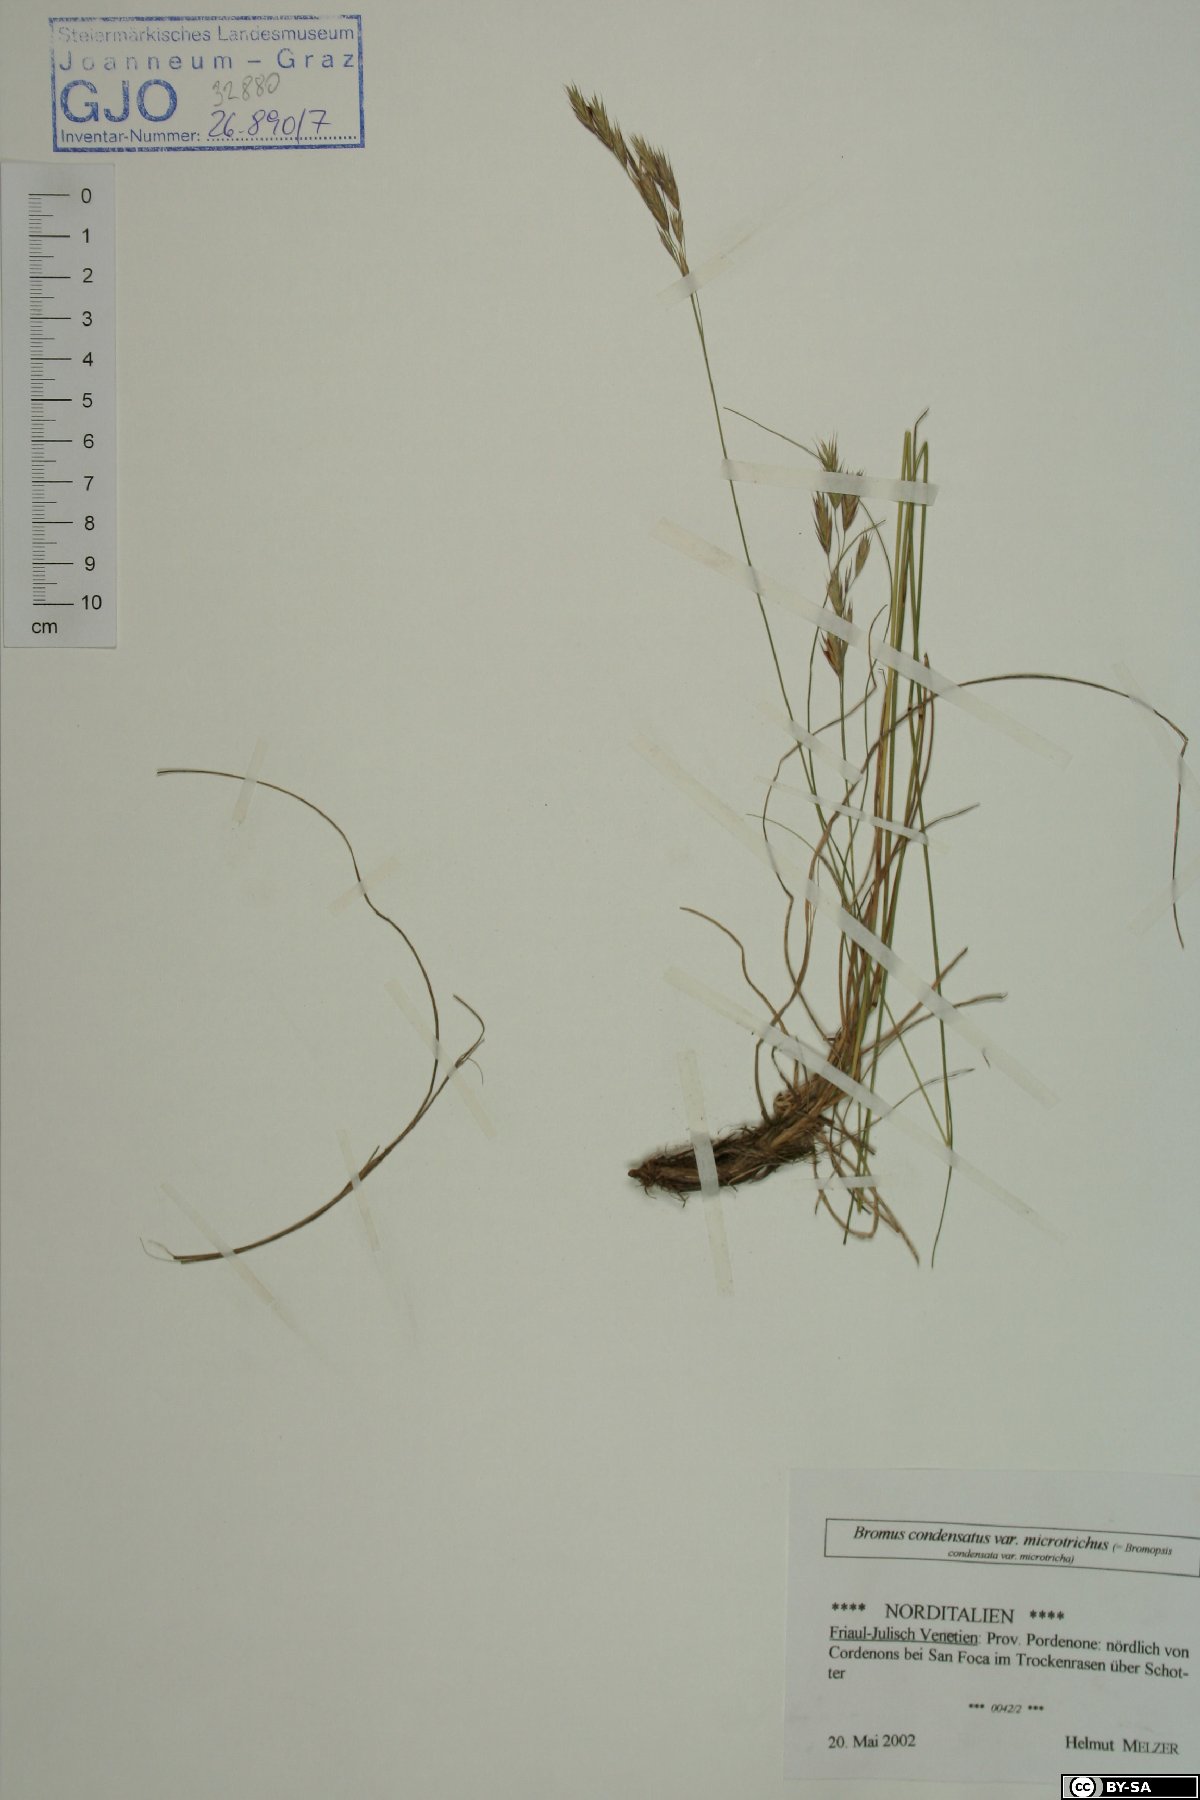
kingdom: Plantae
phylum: Tracheophyta
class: Liliopsida
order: Poales
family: Poaceae
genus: Bromus
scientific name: Bromus condensatus
